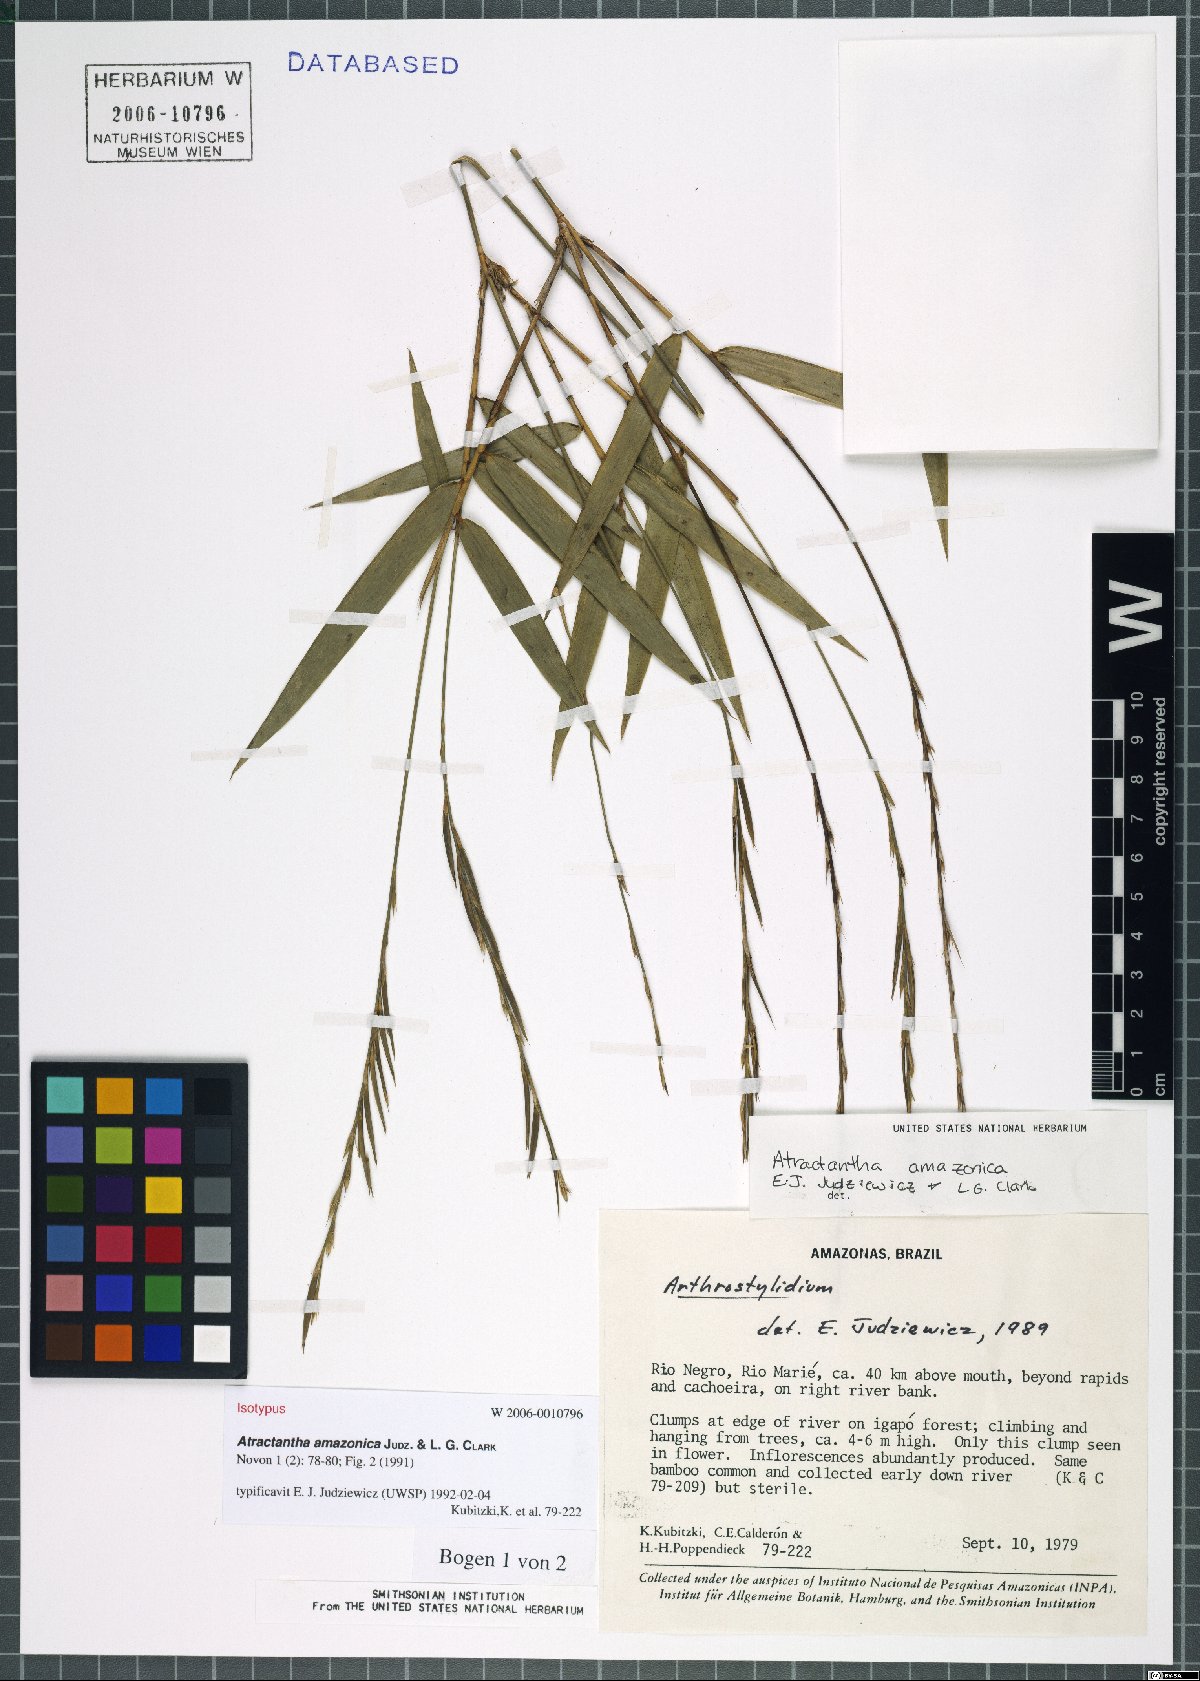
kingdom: Plantae
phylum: Tracheophyta
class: Liliopsida
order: Poales
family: Poaceae
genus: Atractantha
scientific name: Atractantha amazonica
